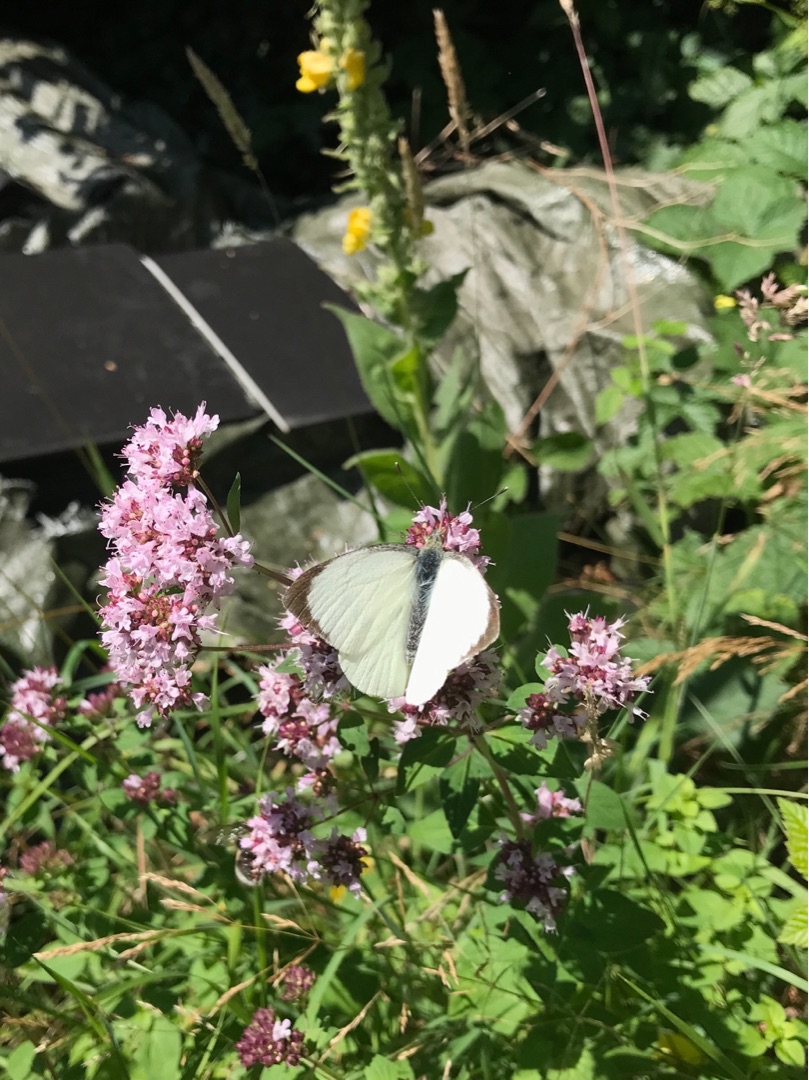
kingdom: Animalia
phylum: Arthropoda
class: Insecta
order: Lepidoptera
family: Pieridae
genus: Pieris
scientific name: Pieris brassicae
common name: Stor kålsommerfugl
